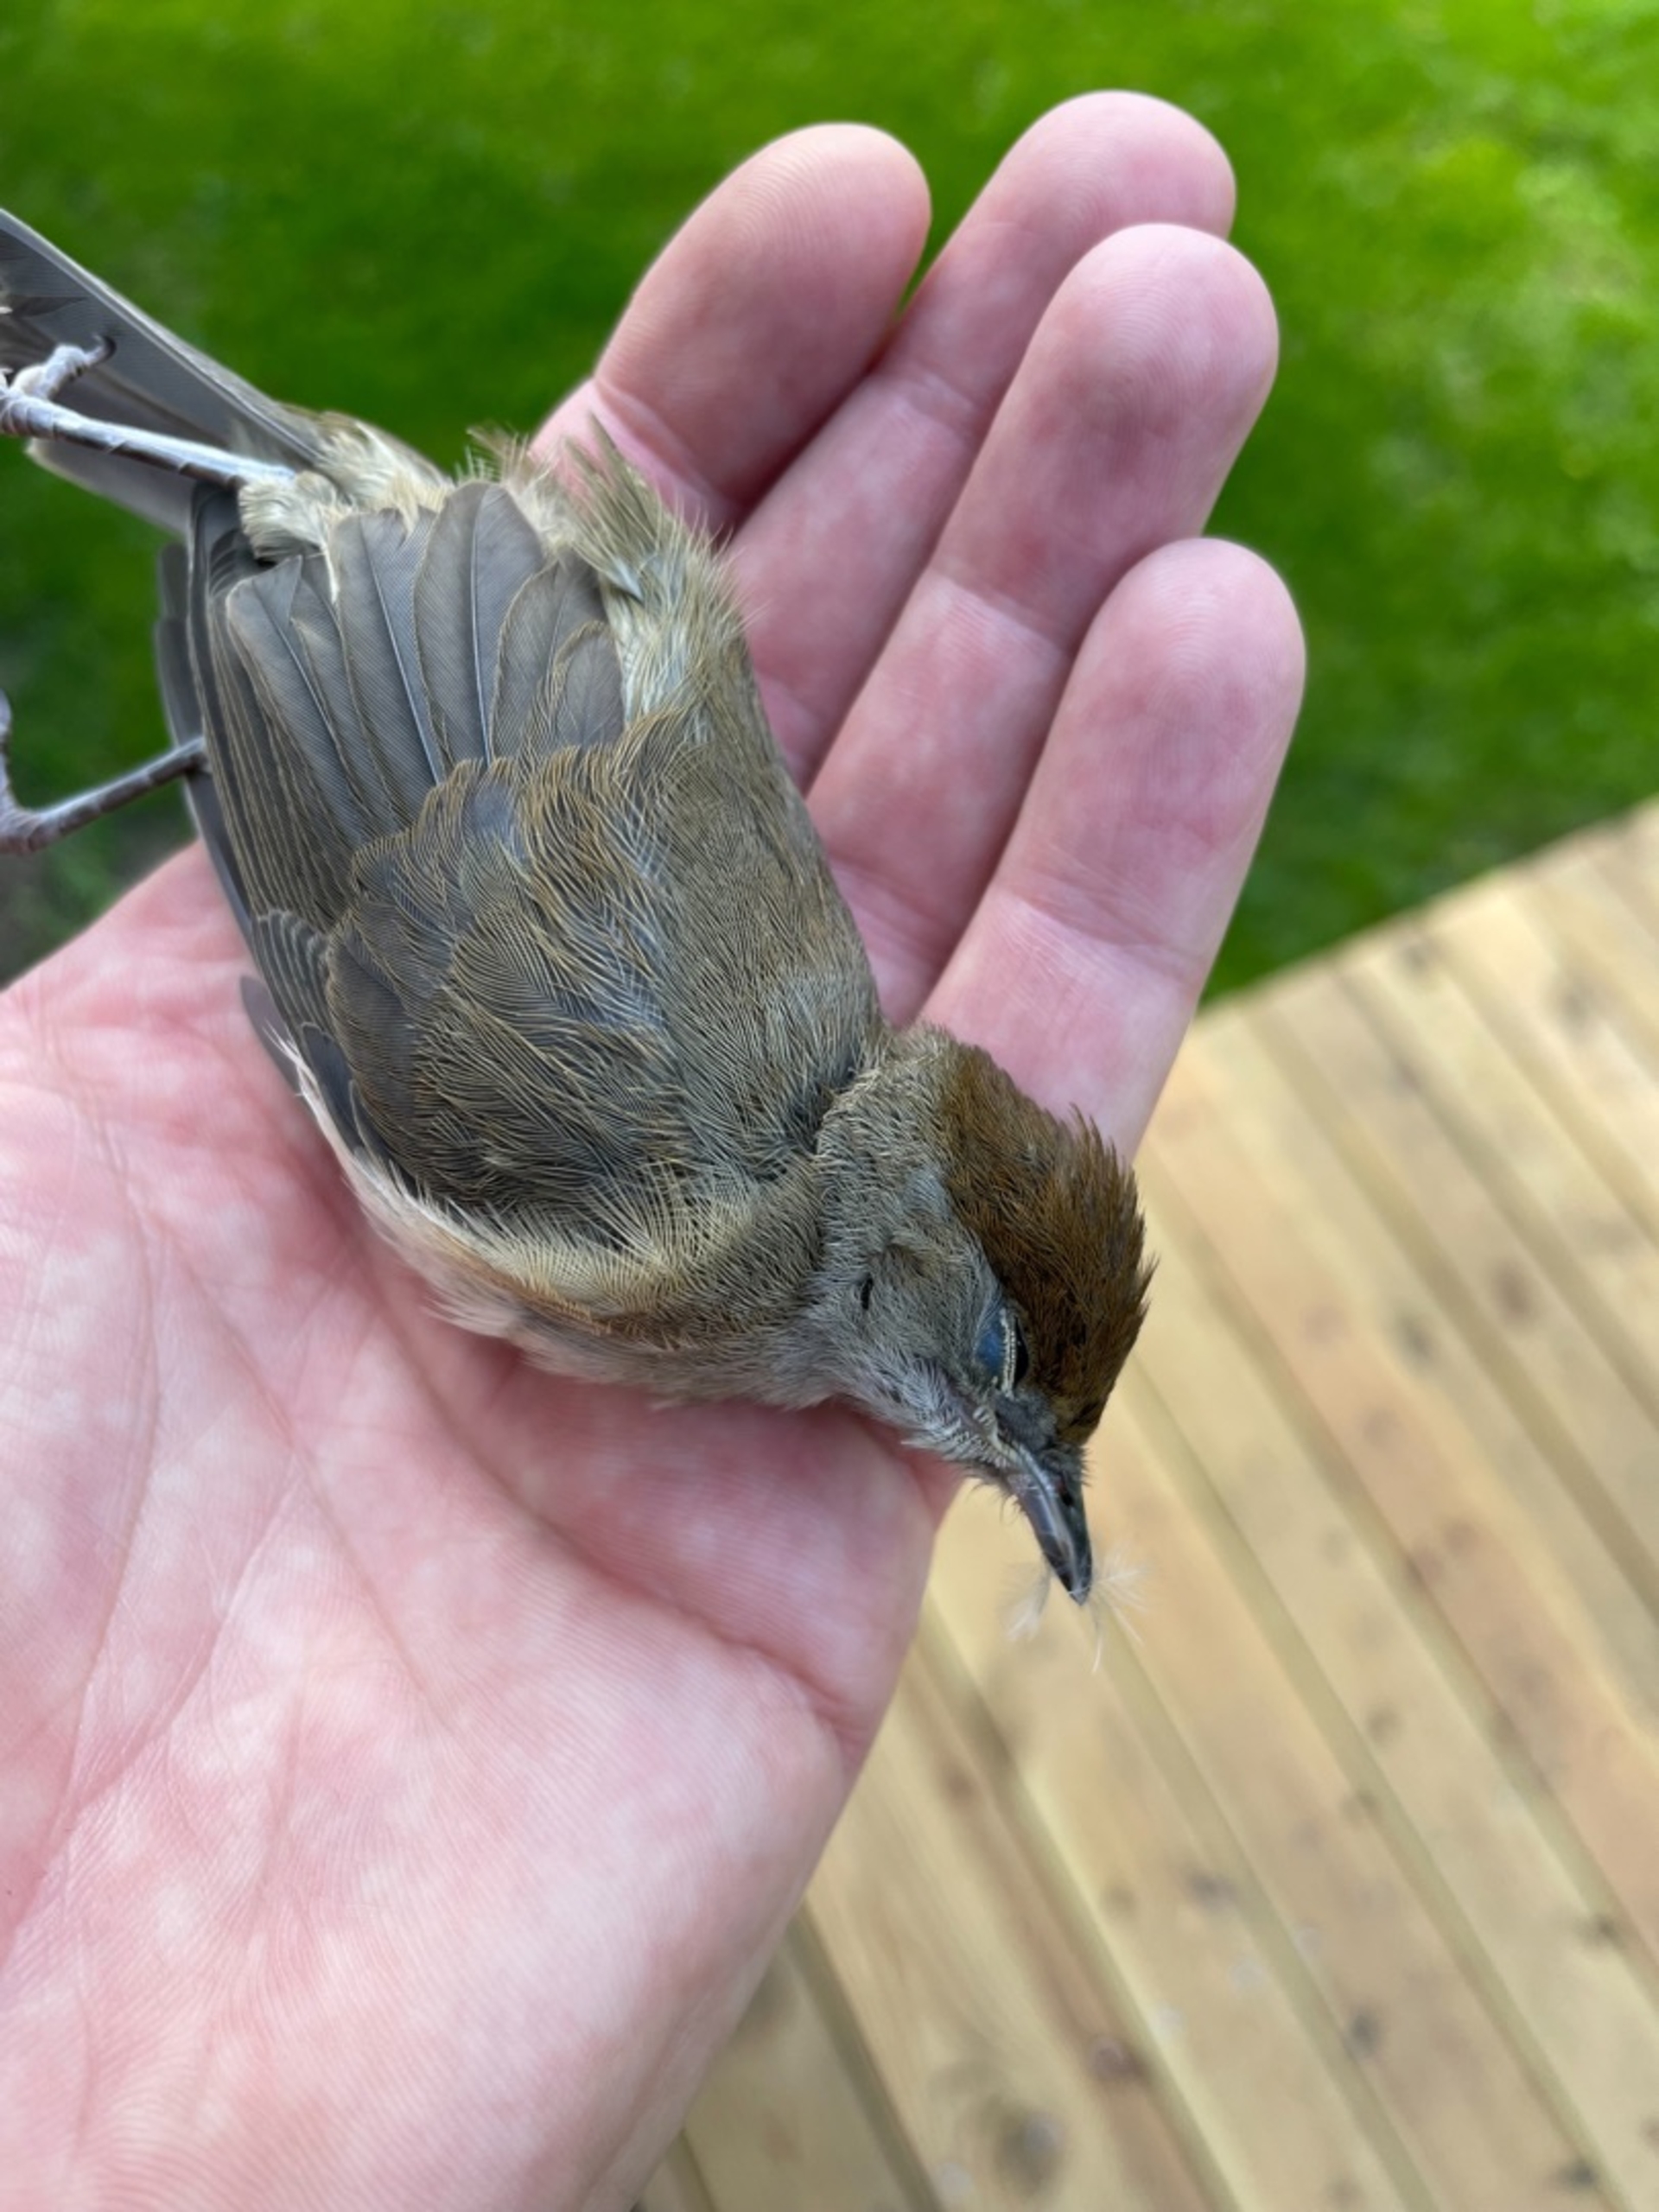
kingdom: Animalia
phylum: Chordata
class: Aves
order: Passeriformes
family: Sylviidae
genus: Sylvia
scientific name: Sylvia atricapilla
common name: Munk
